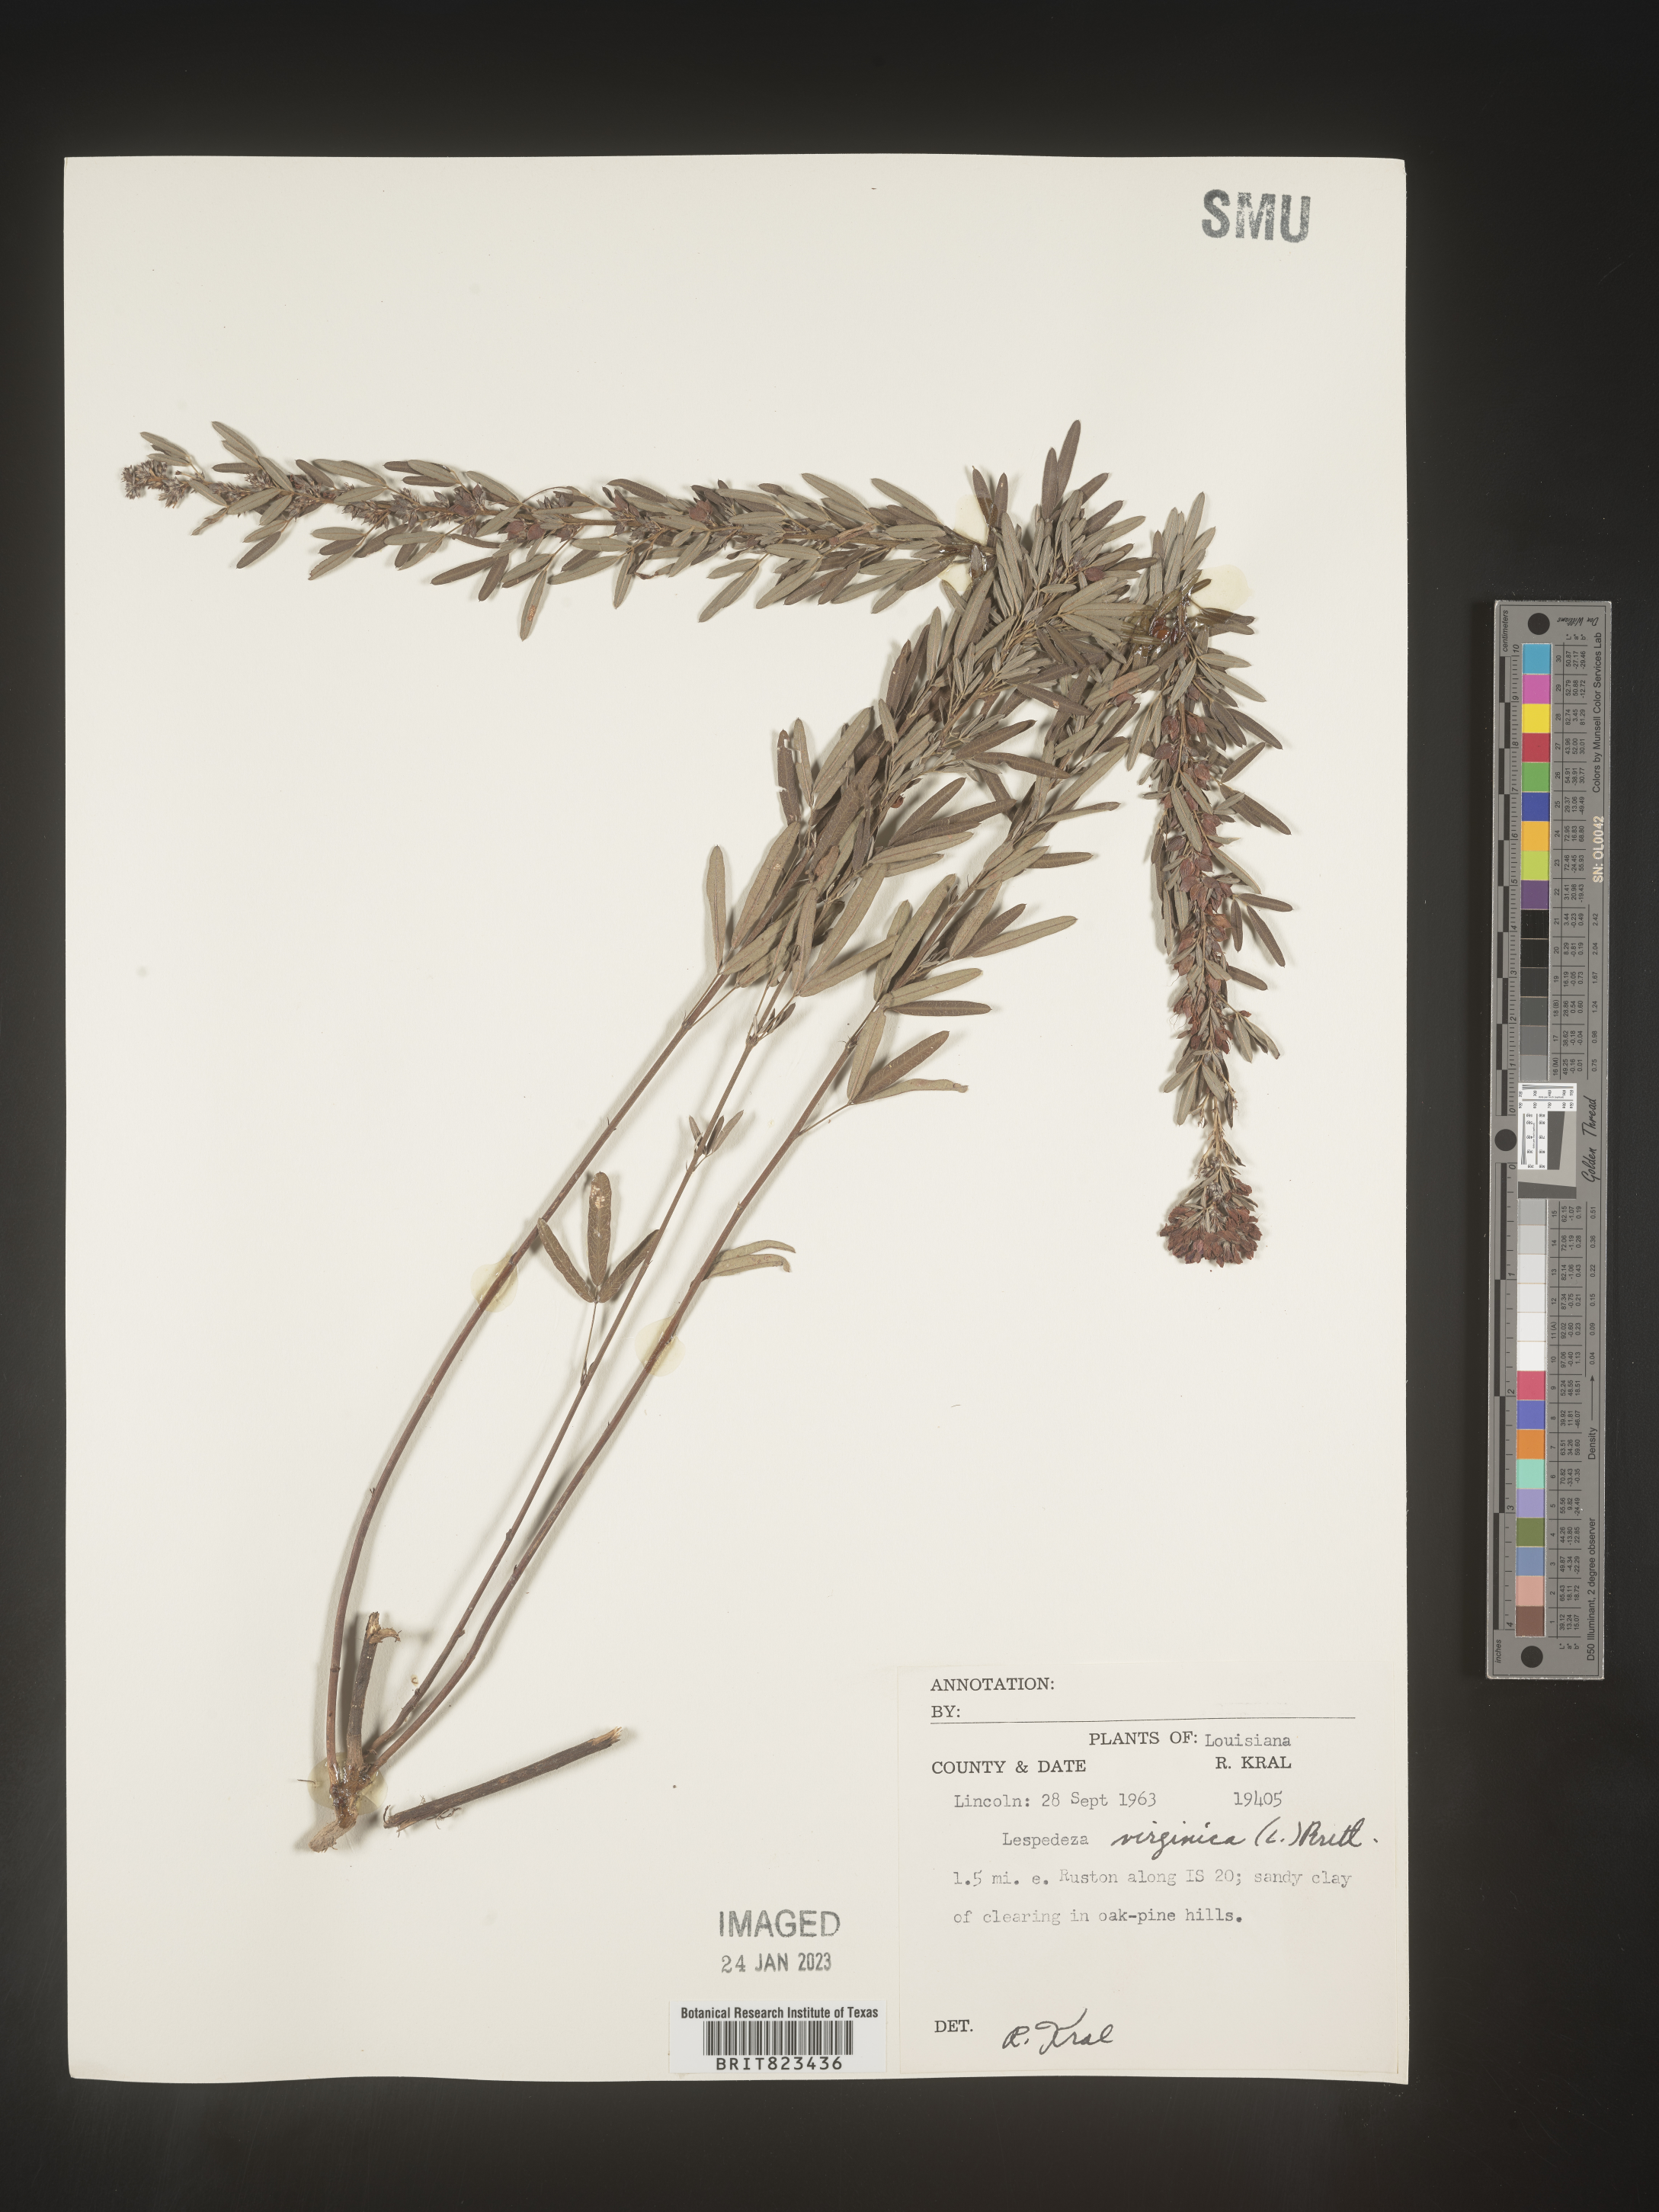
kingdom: Plantae
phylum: Tracheophyta
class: Magnoliopsida
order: Fabales
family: Fabaceae
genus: Lespedeza
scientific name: Lespedeza virginica
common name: Slender bush-clover
